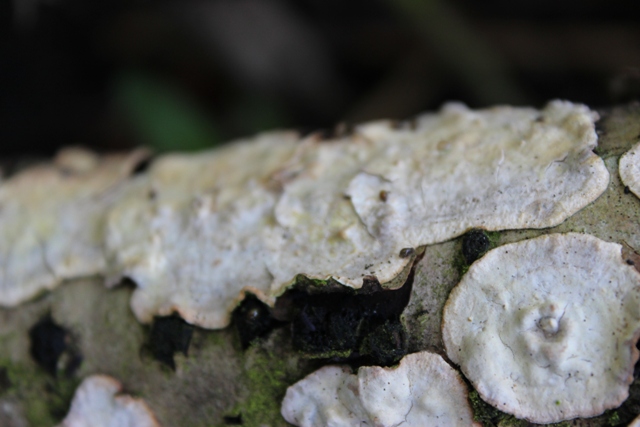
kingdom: Fungi
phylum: Basidiomycota
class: Agaricomycetes
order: Russulales
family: Stereaceae
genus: Stereum
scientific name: Stereum rugosum
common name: rynket lædersvamp
